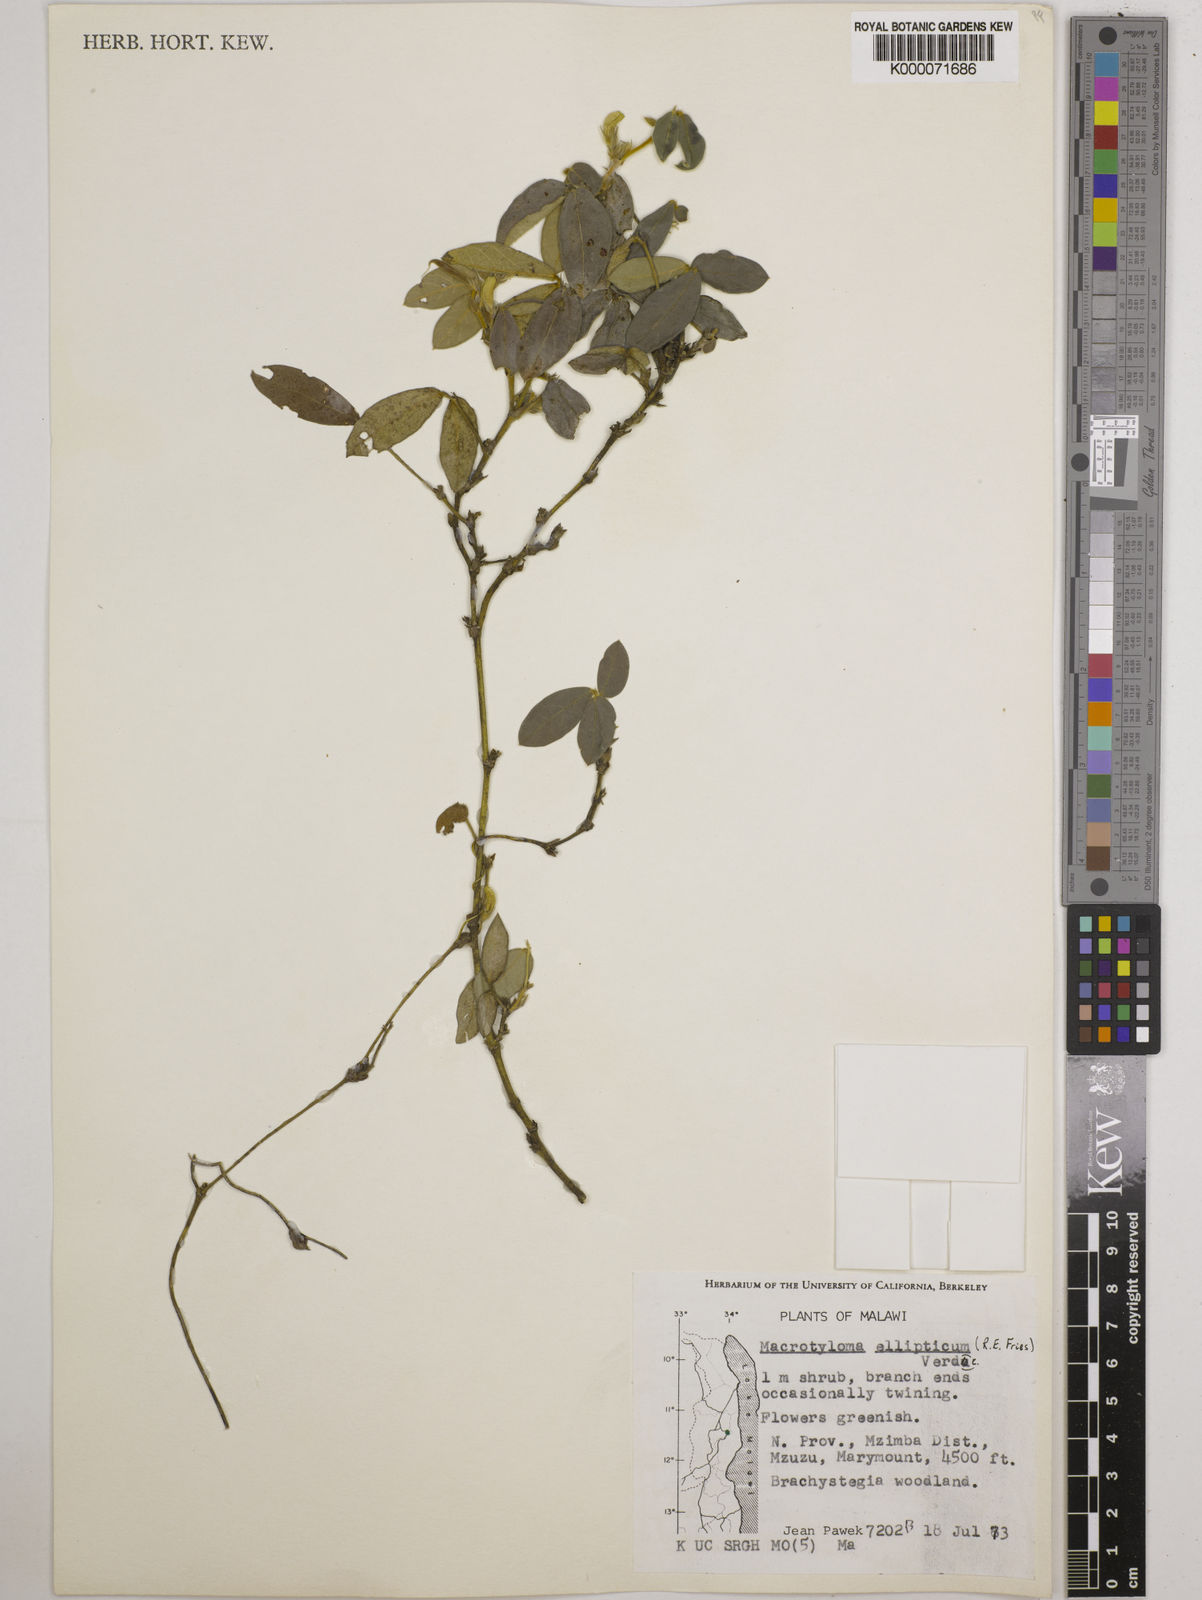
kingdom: Plantae
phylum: Tracheophyta
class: Magnoliopsida
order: Fabales
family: Fabaceae
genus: Macrotyloma
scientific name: Macrotyloma ellipticum
